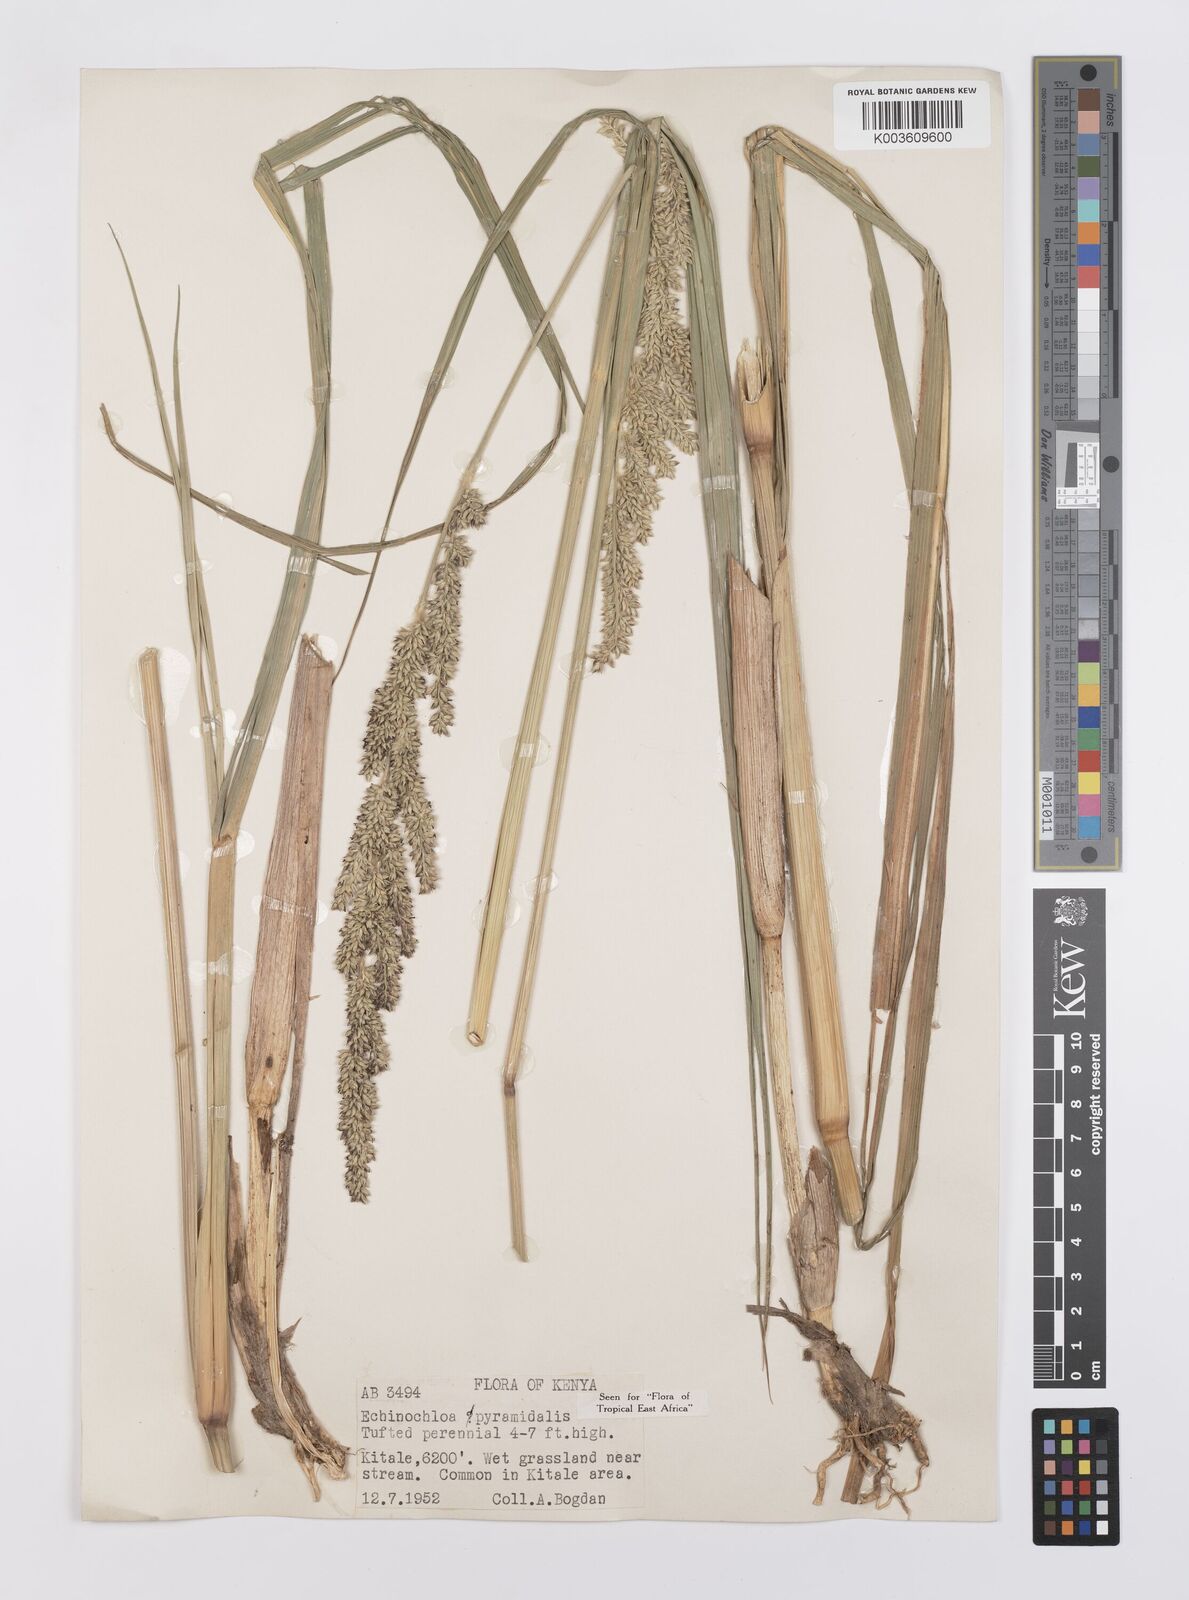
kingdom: Plantae
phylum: Tracheophyta
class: Liliopsida
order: Poales
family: Poaceae
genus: Echinochloa
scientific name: Echinochloa pyramidalis
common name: Antelope grass
